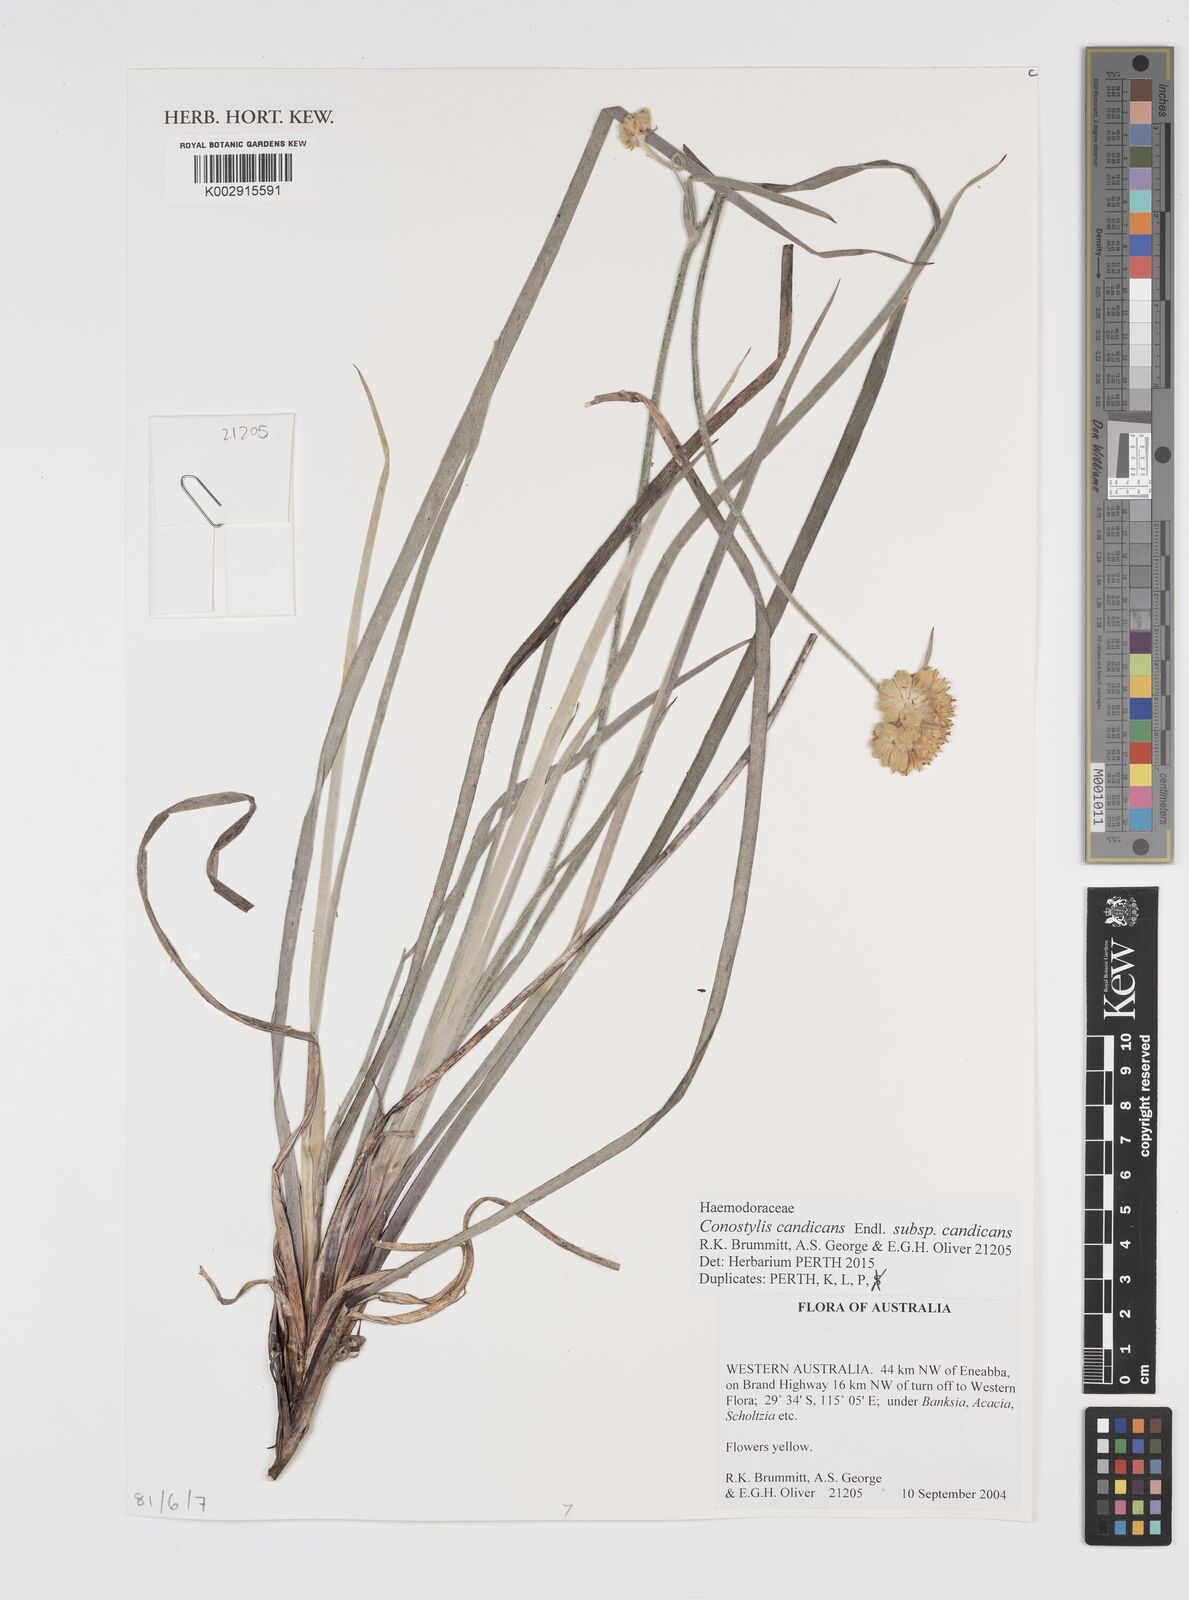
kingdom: Plantae
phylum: Tracheophyta
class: Liliopsida
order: Commelinales
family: Haemodoraceae
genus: Conostylis
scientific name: Conostylis candicans
